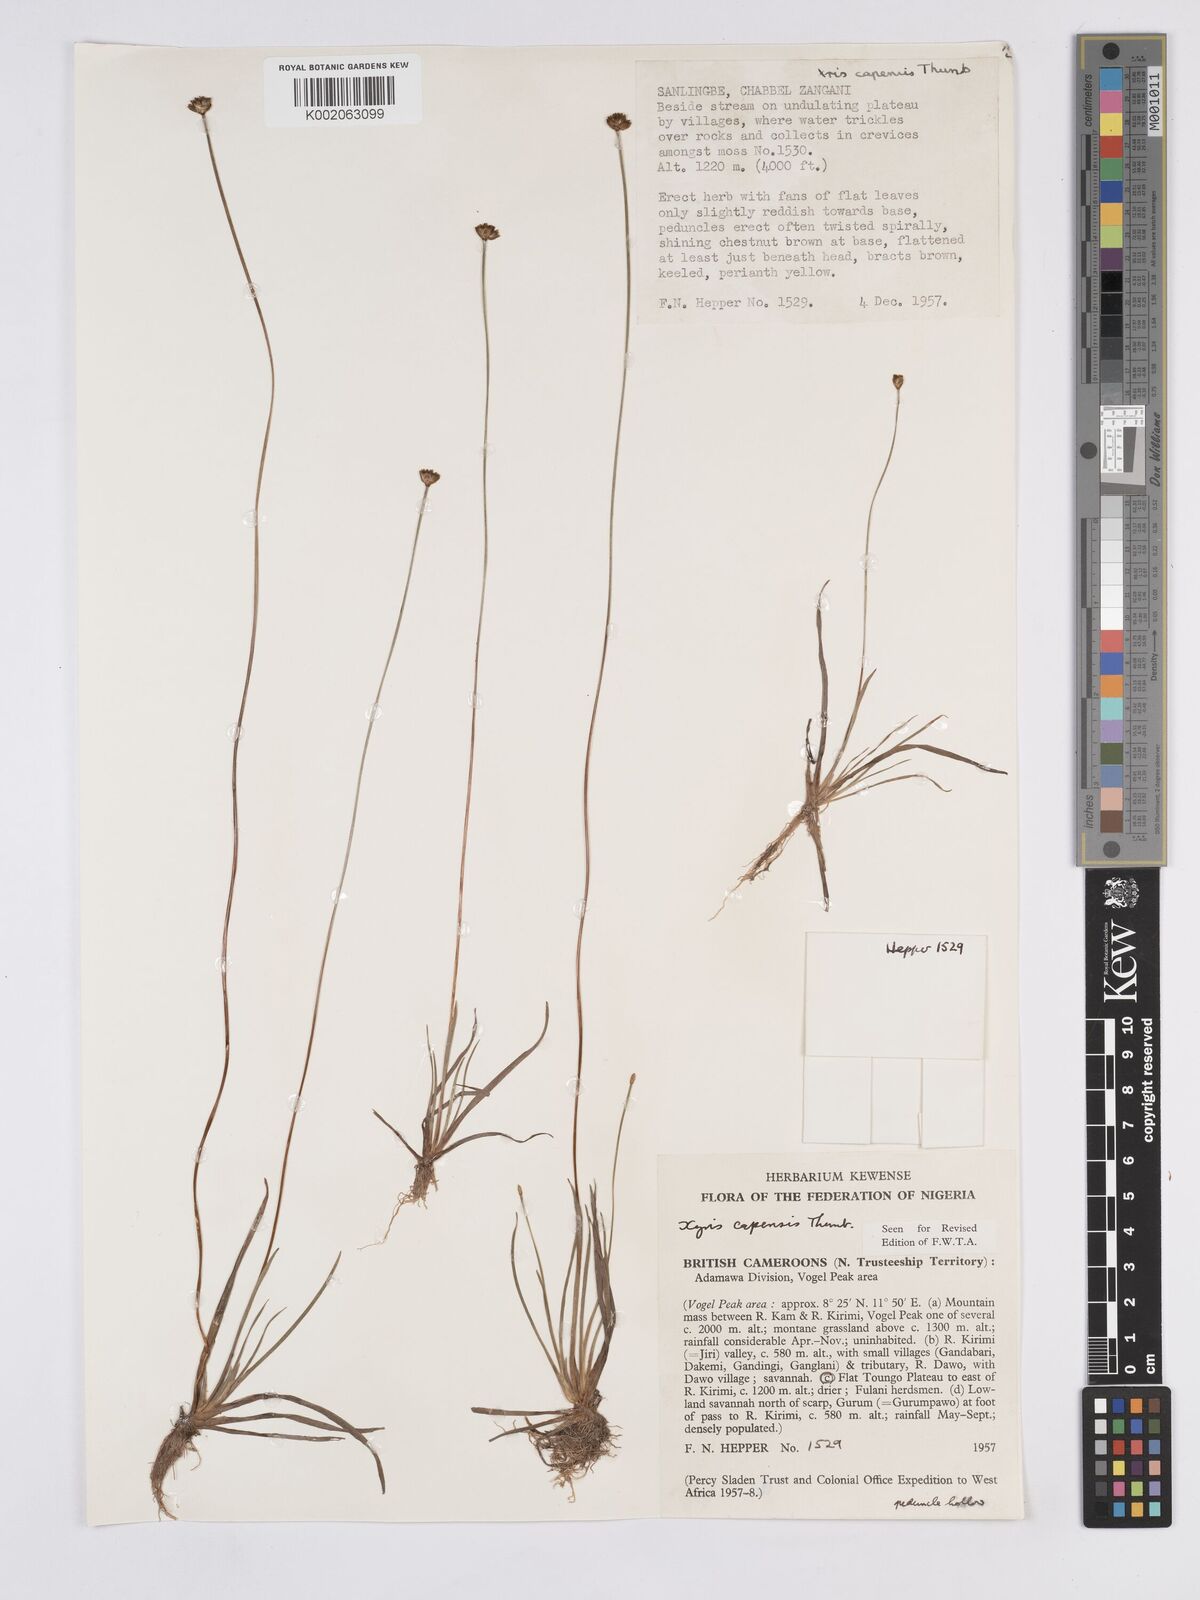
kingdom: Plantae
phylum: Tracheophyta
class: Liliopsida
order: Poales
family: Xyridaceae
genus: Xyris
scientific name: Xyris capensis
